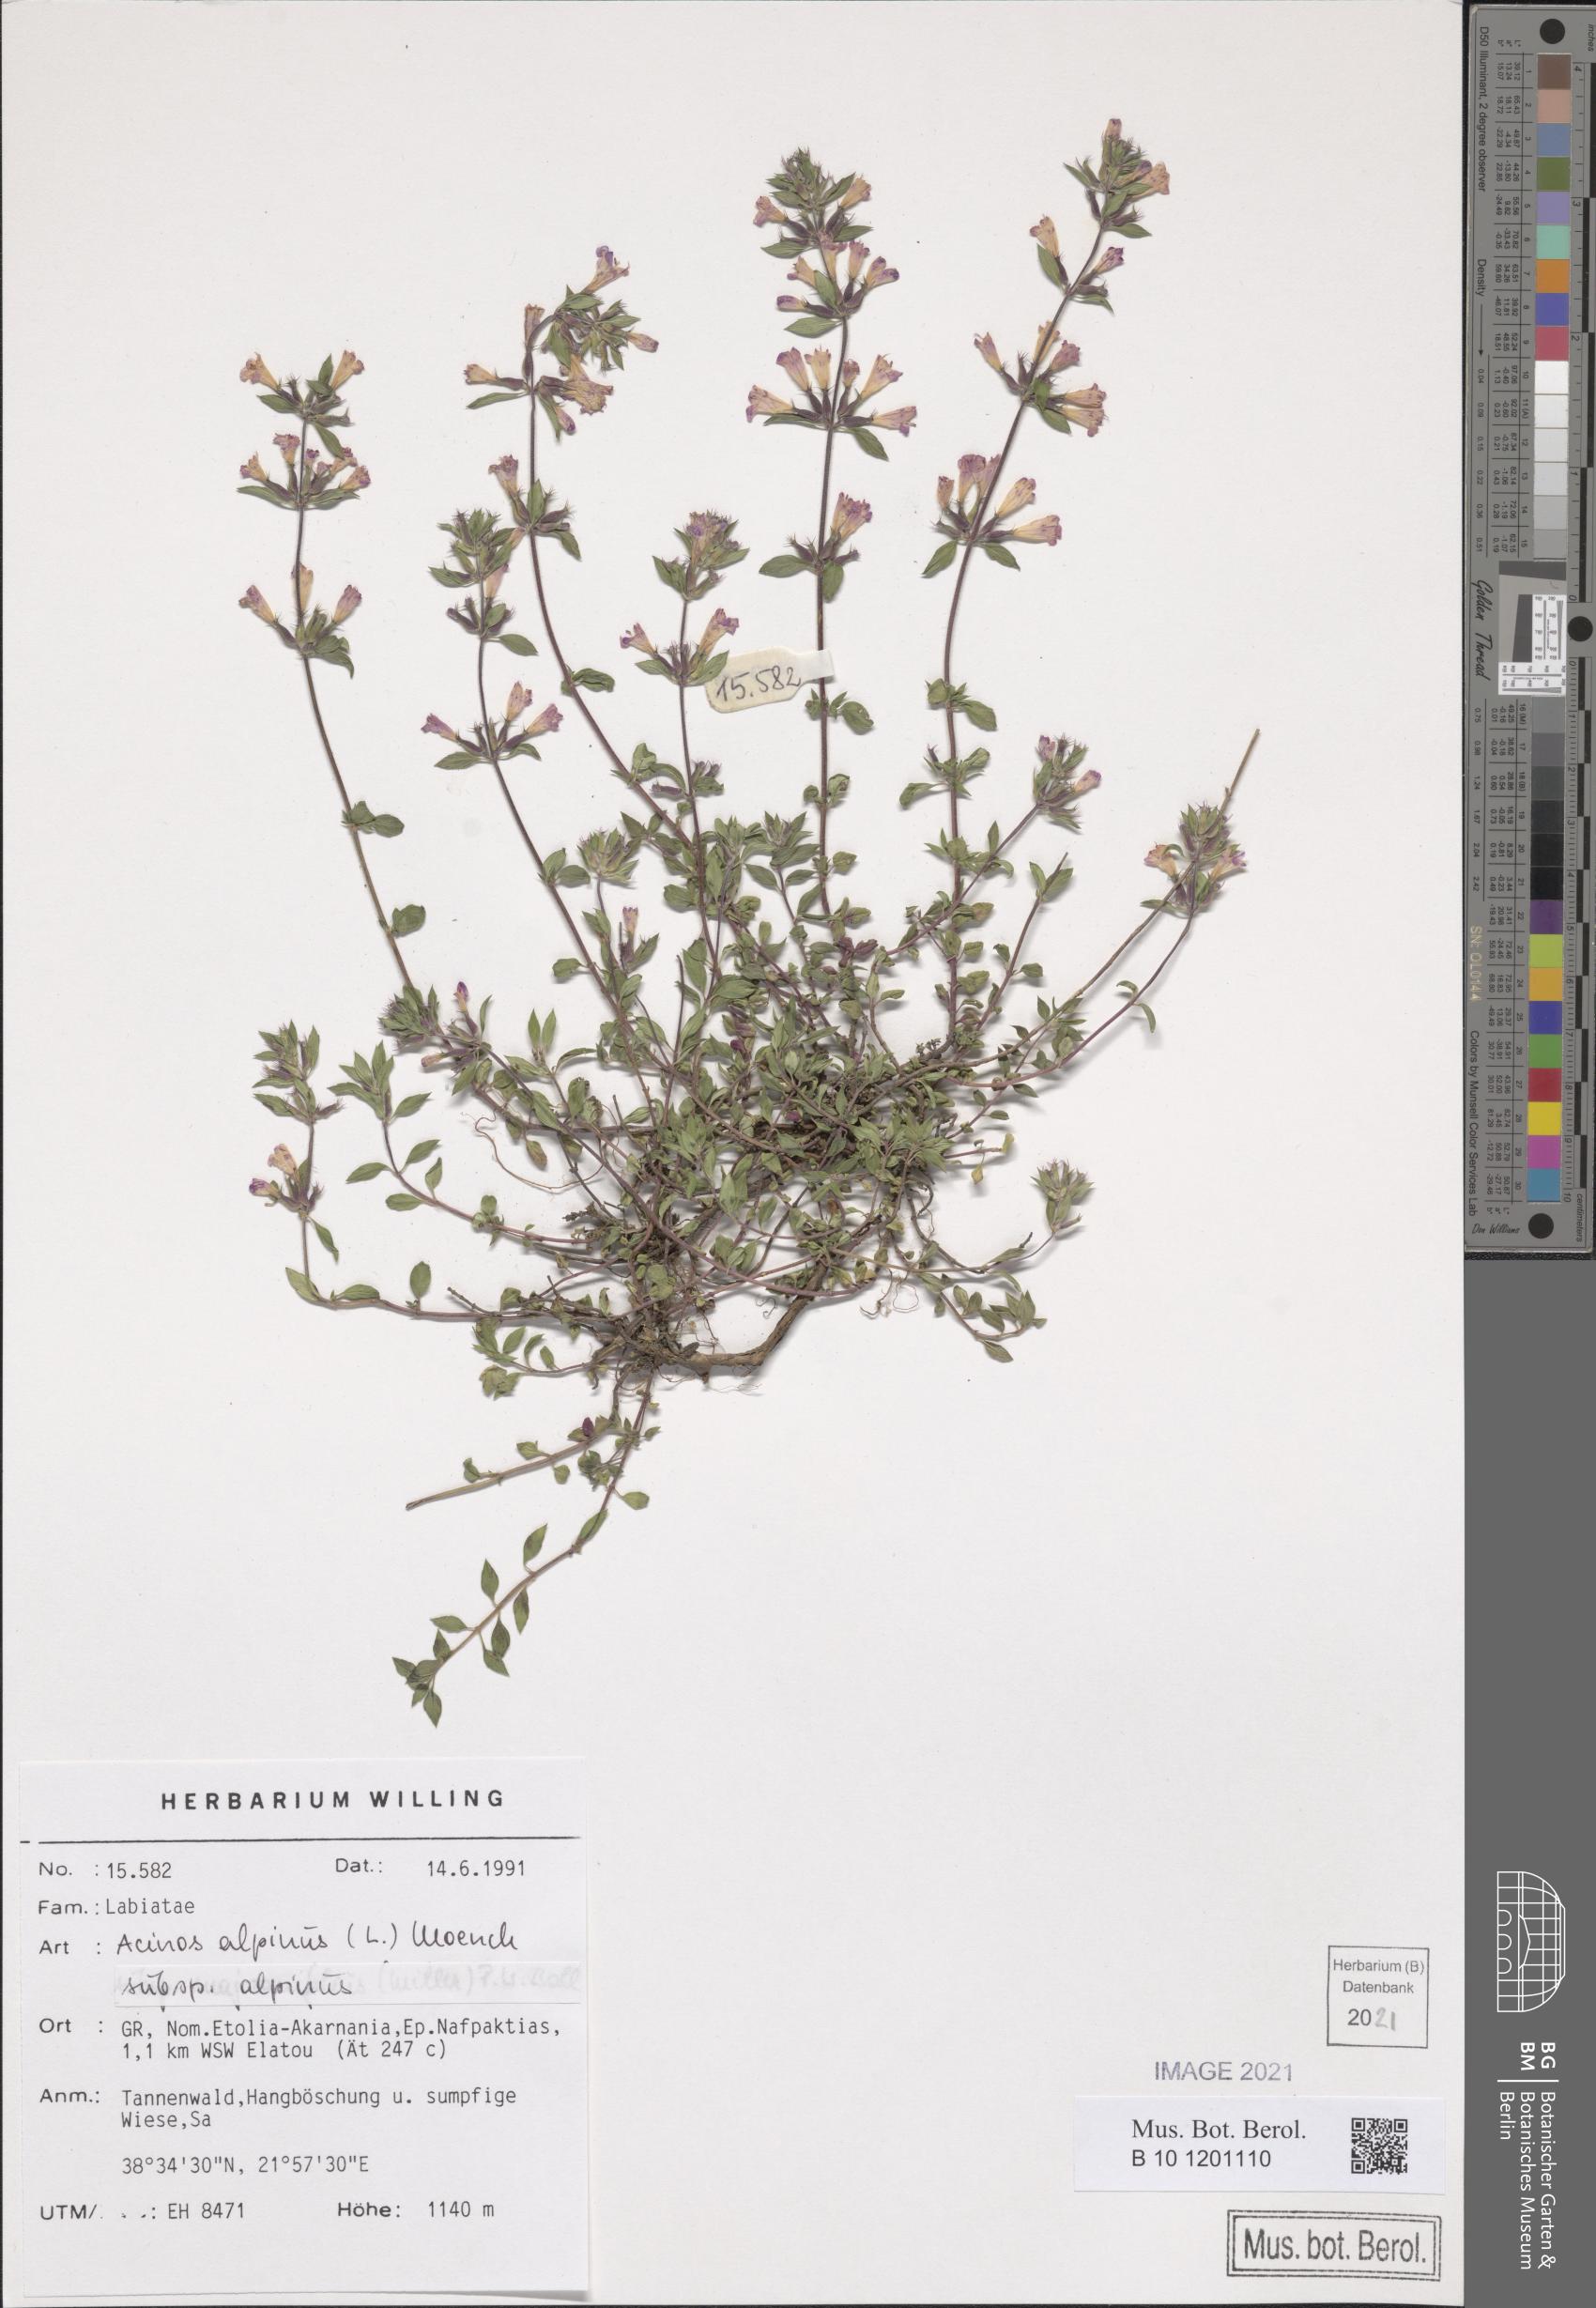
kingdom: Plantae
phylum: Tracheophyta
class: Magnoliopsida
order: Lamiales
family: Lamiaceae
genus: Clinopodium
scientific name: Clinopodium alpinum
